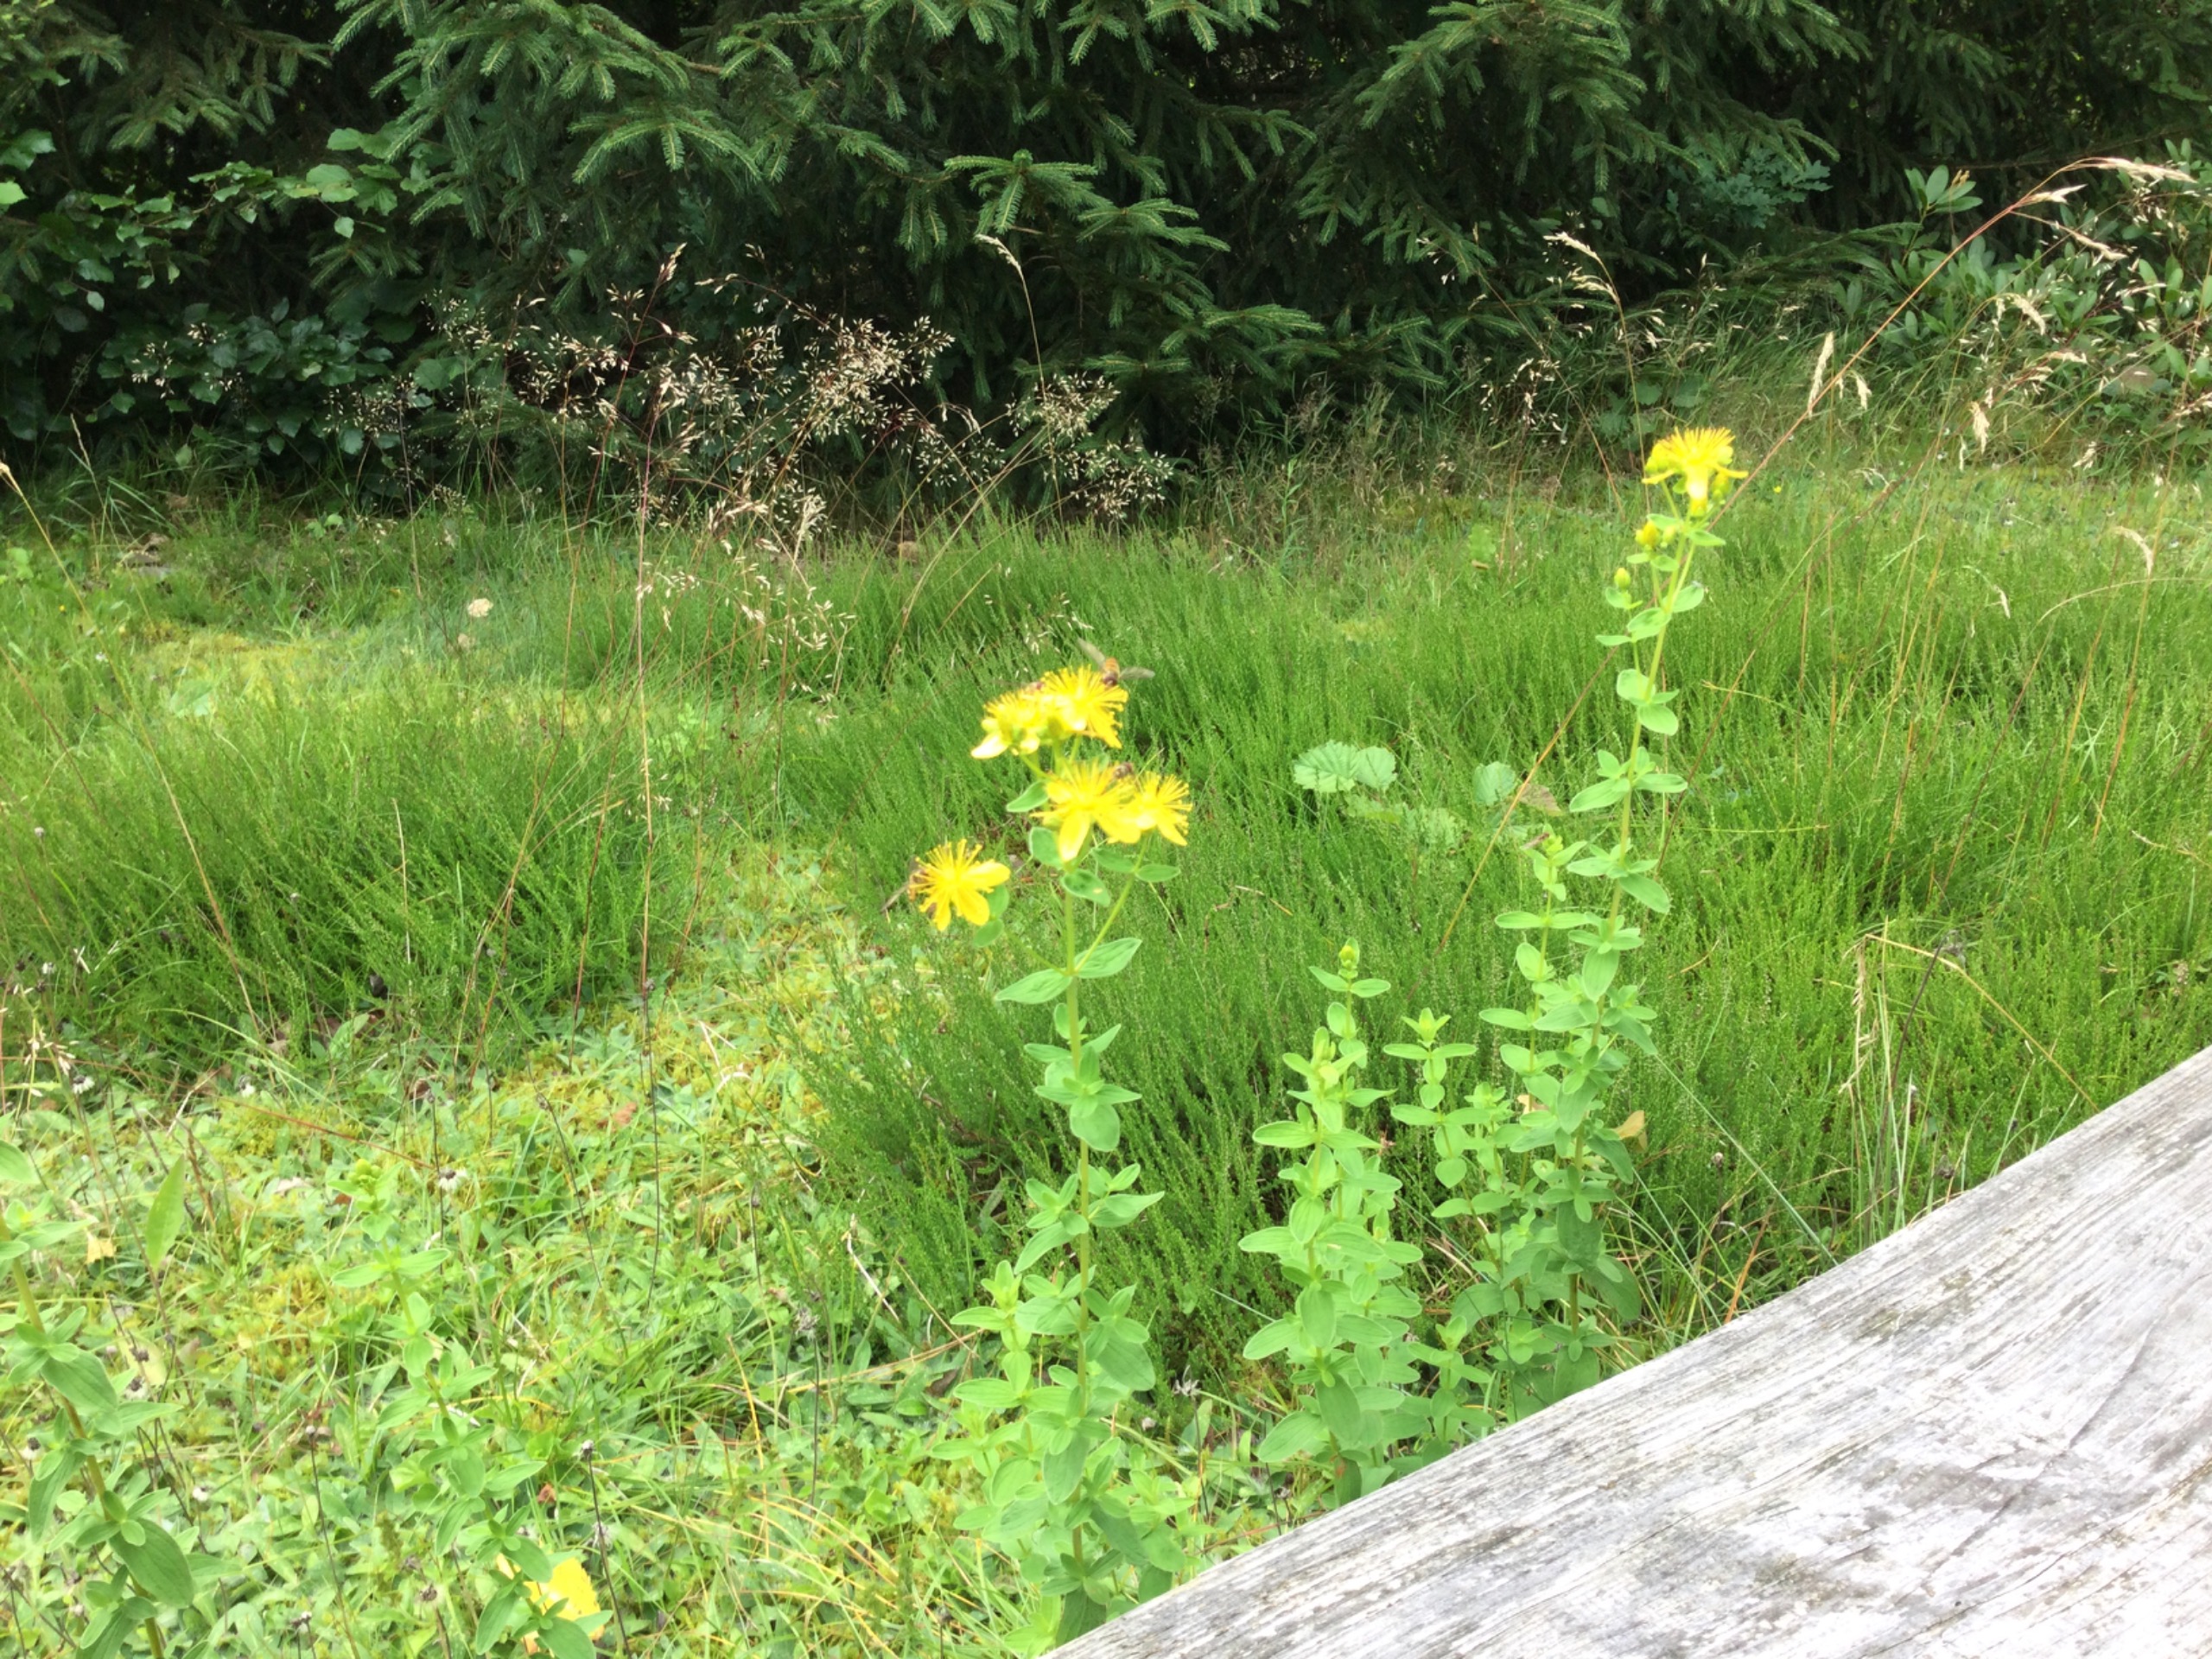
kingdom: Plantae
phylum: Tracheophyta
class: Magnoliopsida
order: Malpighiales
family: Hypericaceae
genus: Hypericum
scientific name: Hypericum maculatum
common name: Kantet perikon
